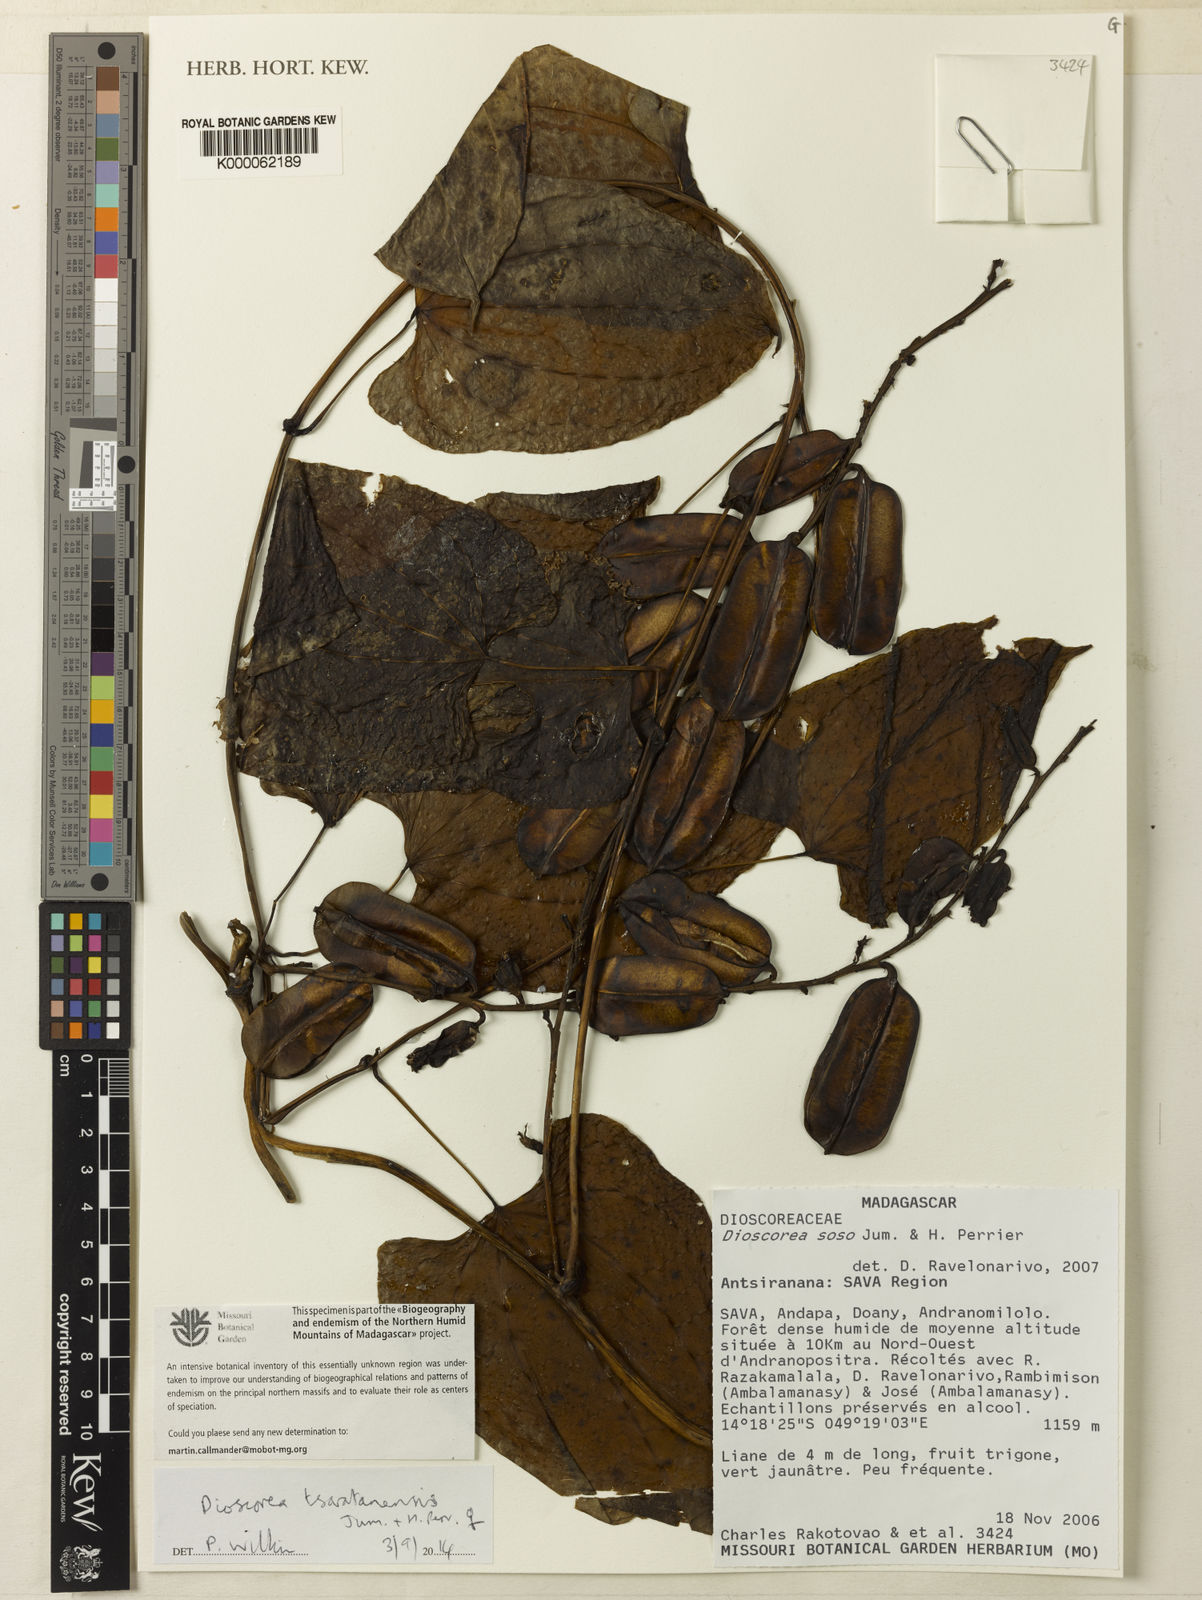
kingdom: Plantae
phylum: Tracheophyta
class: Liliopsida
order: Dioscoreales
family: Dioscoreaceae
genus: Dioscorea
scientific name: Dioscorea
